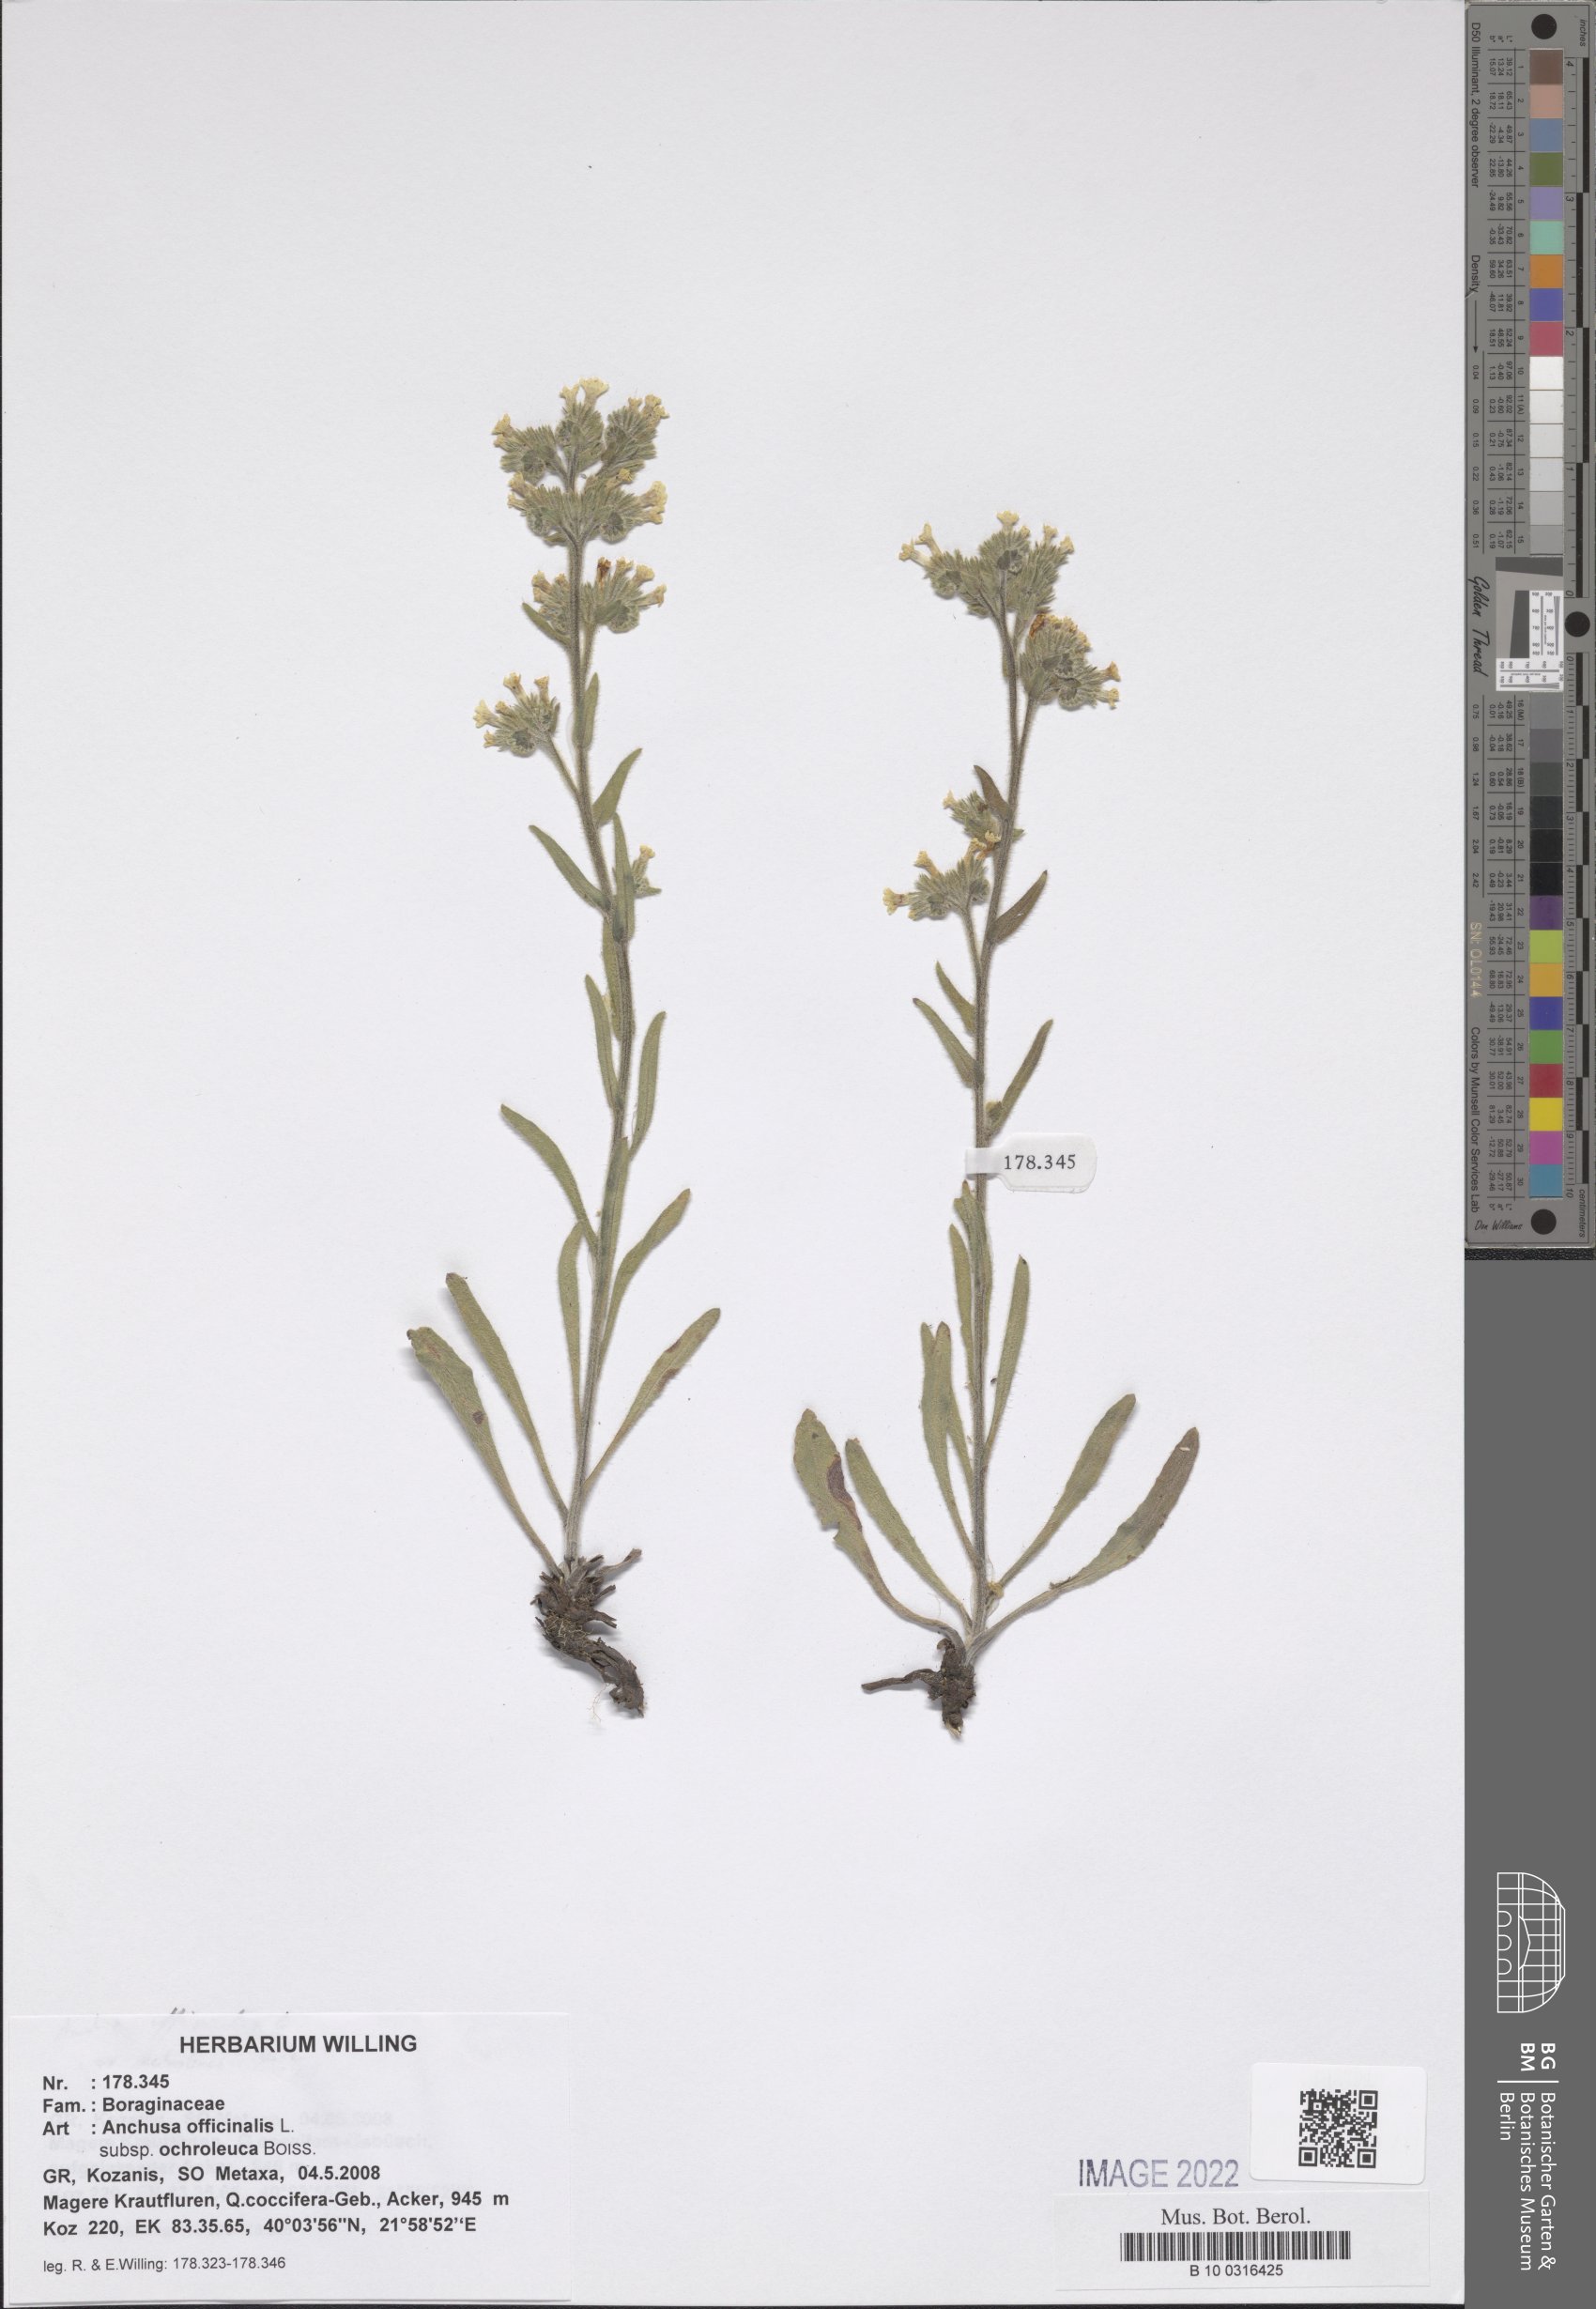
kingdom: Plantae
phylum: Tracheophyta
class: Magnoliopsida
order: Boraginales
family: Boraginaceae
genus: Anchusa
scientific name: Anchusa officinalis
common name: Alkanet
